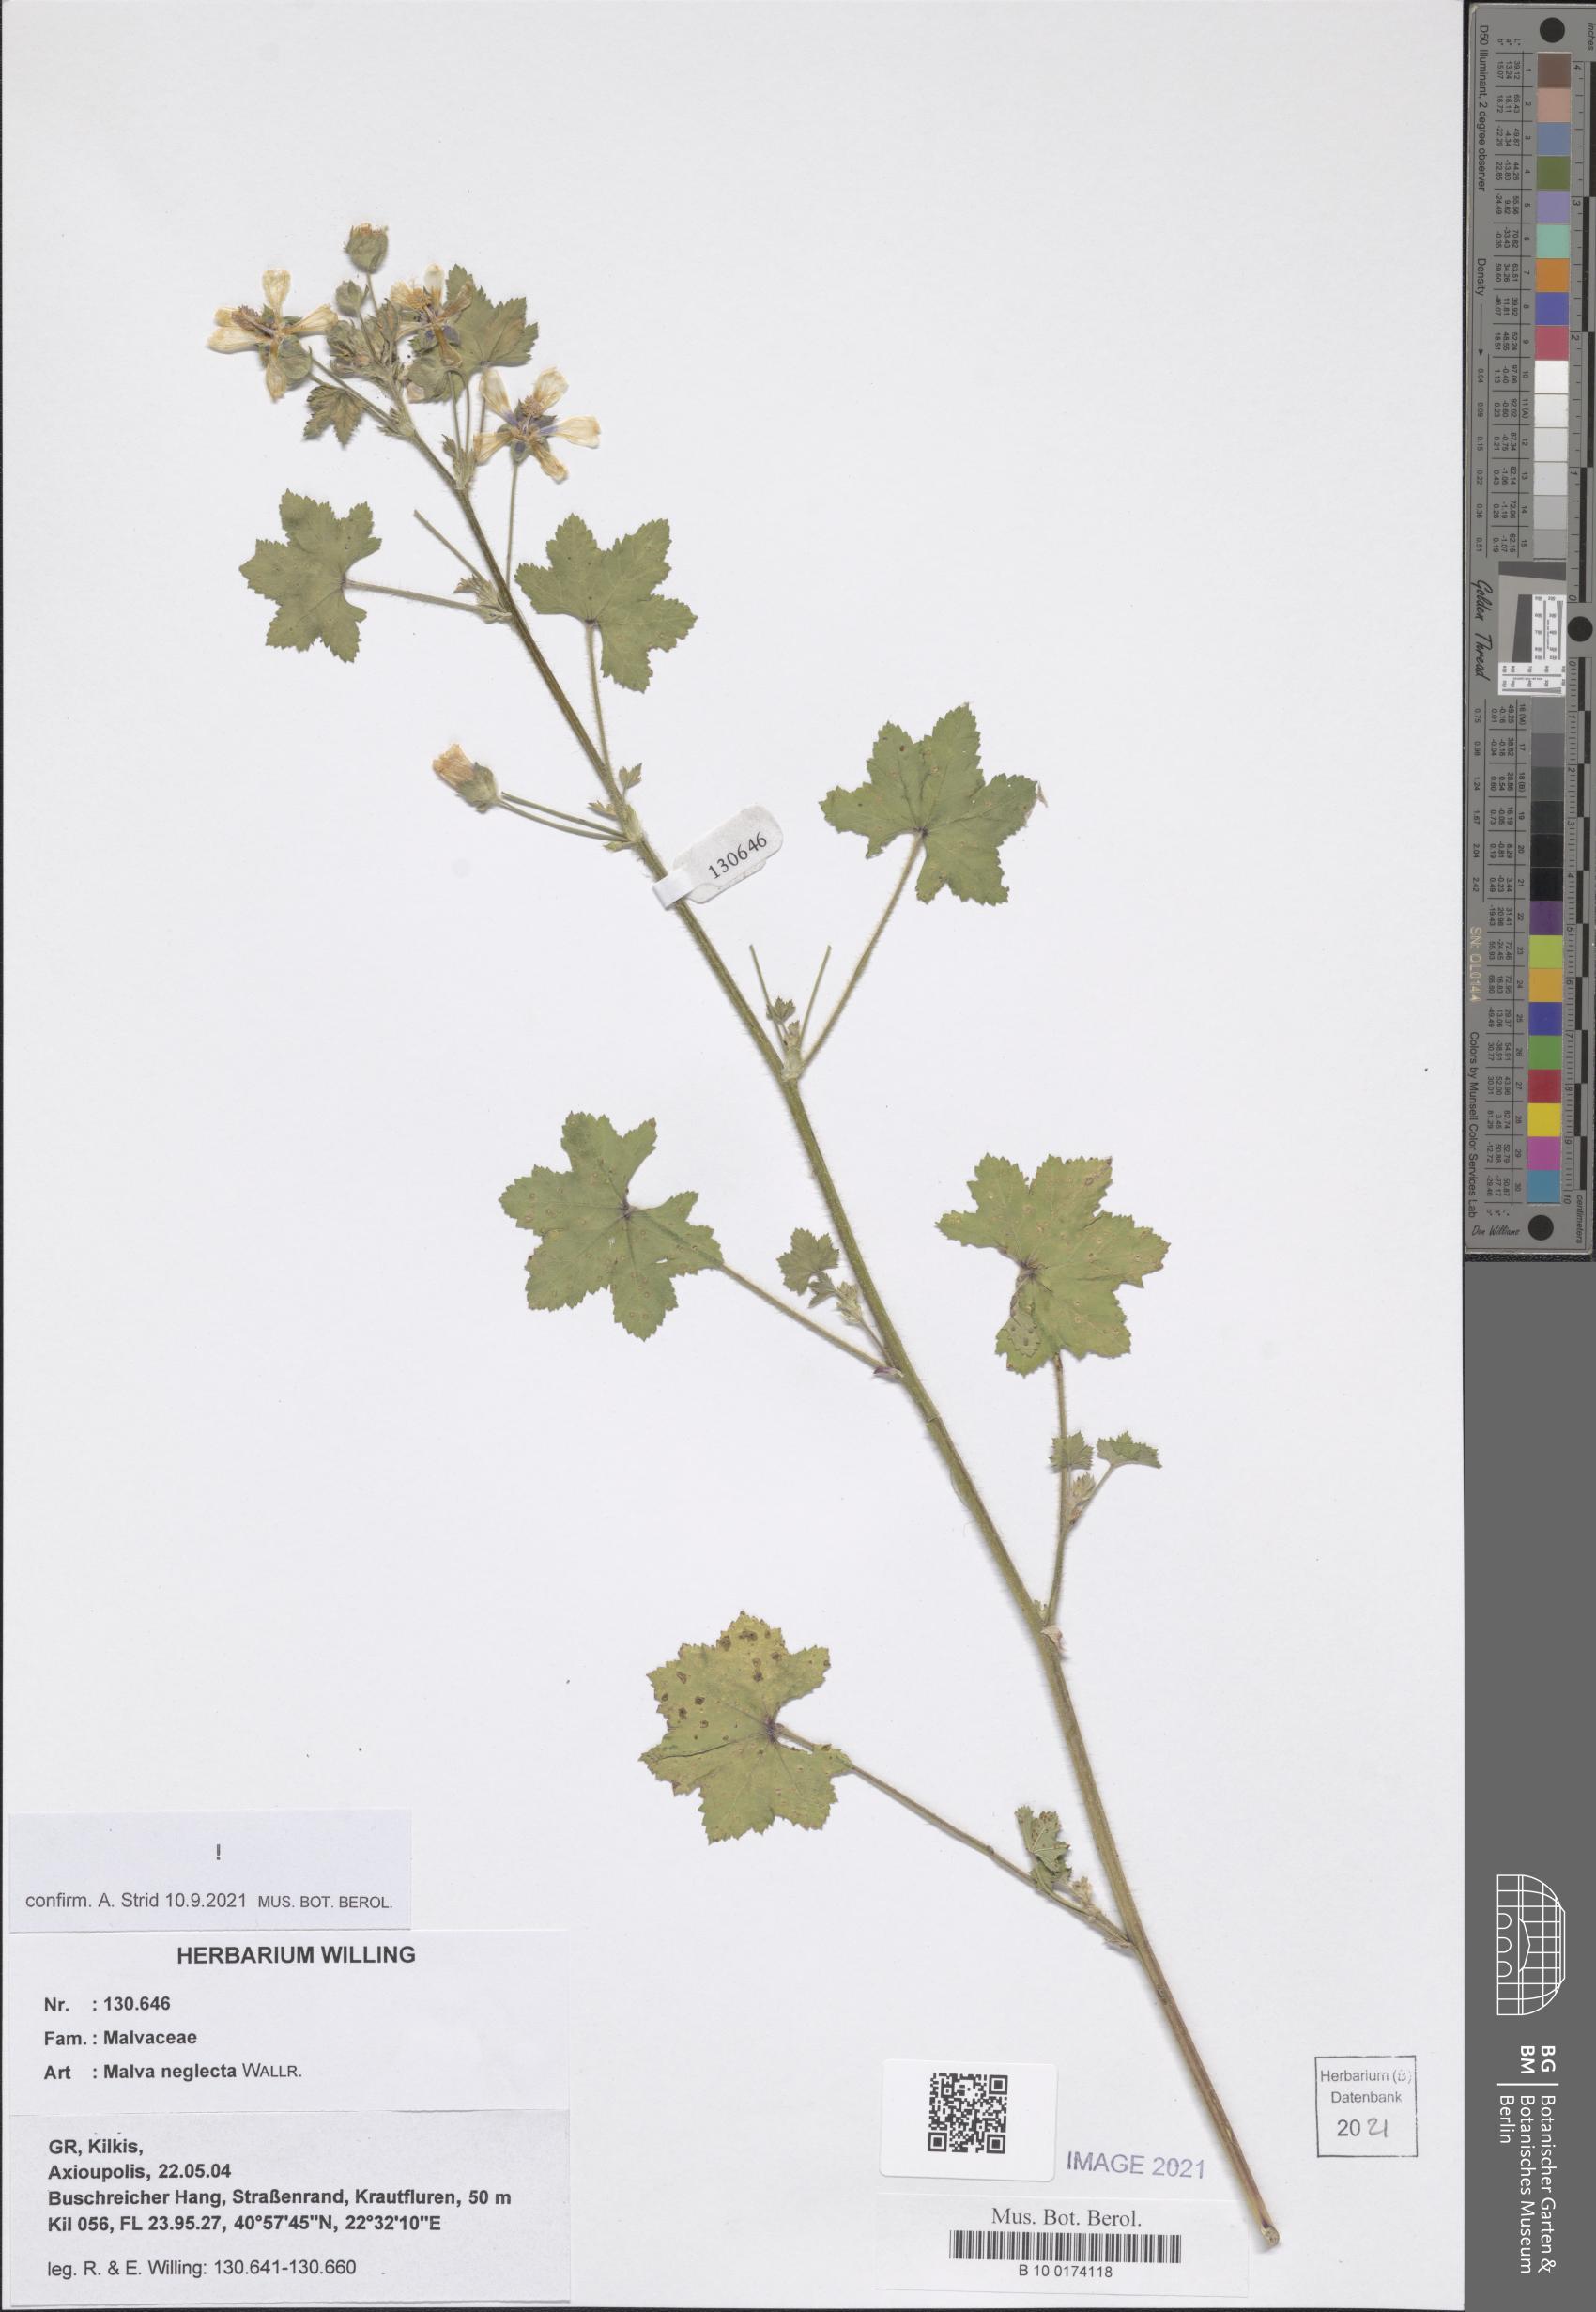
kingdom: Plantae
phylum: Tracheophyta
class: Magnoliopsida
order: Malvales
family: Malvaceae
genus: Malva
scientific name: Malva neglecta
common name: Common mallow
